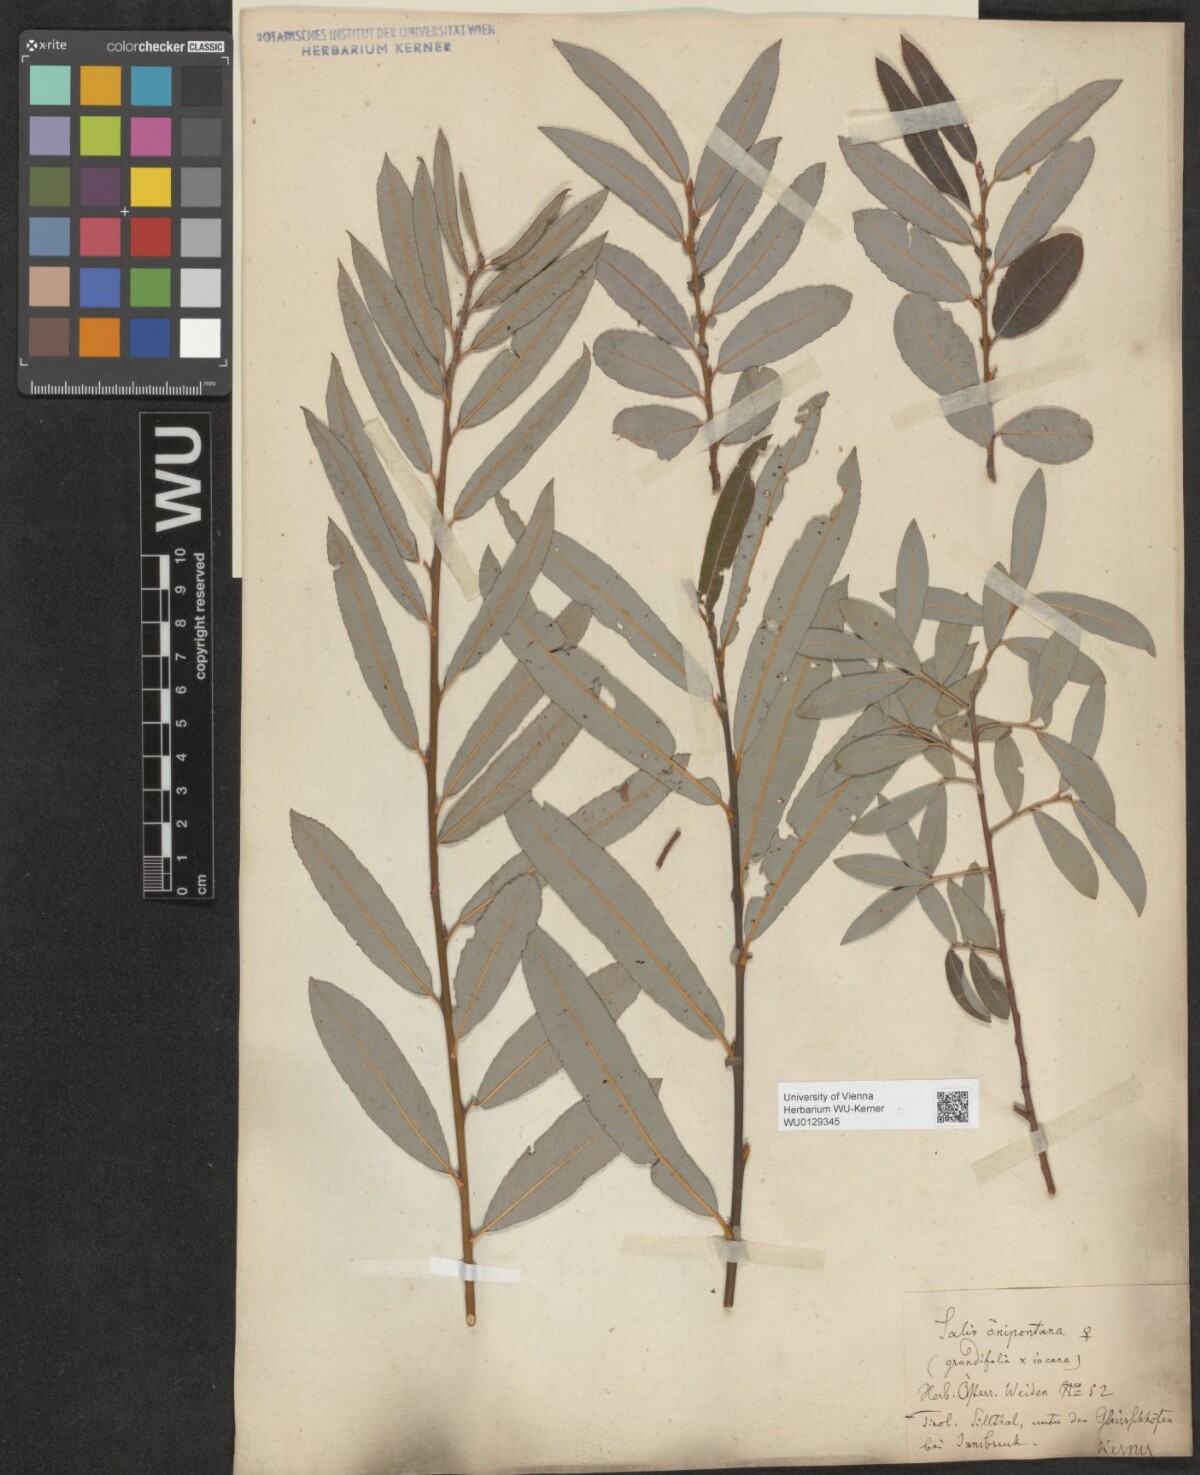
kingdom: Plantae
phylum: Tracheophyta
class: Magnoliopsida
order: Malpighiales
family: Salicaceae
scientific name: Salicaceae
